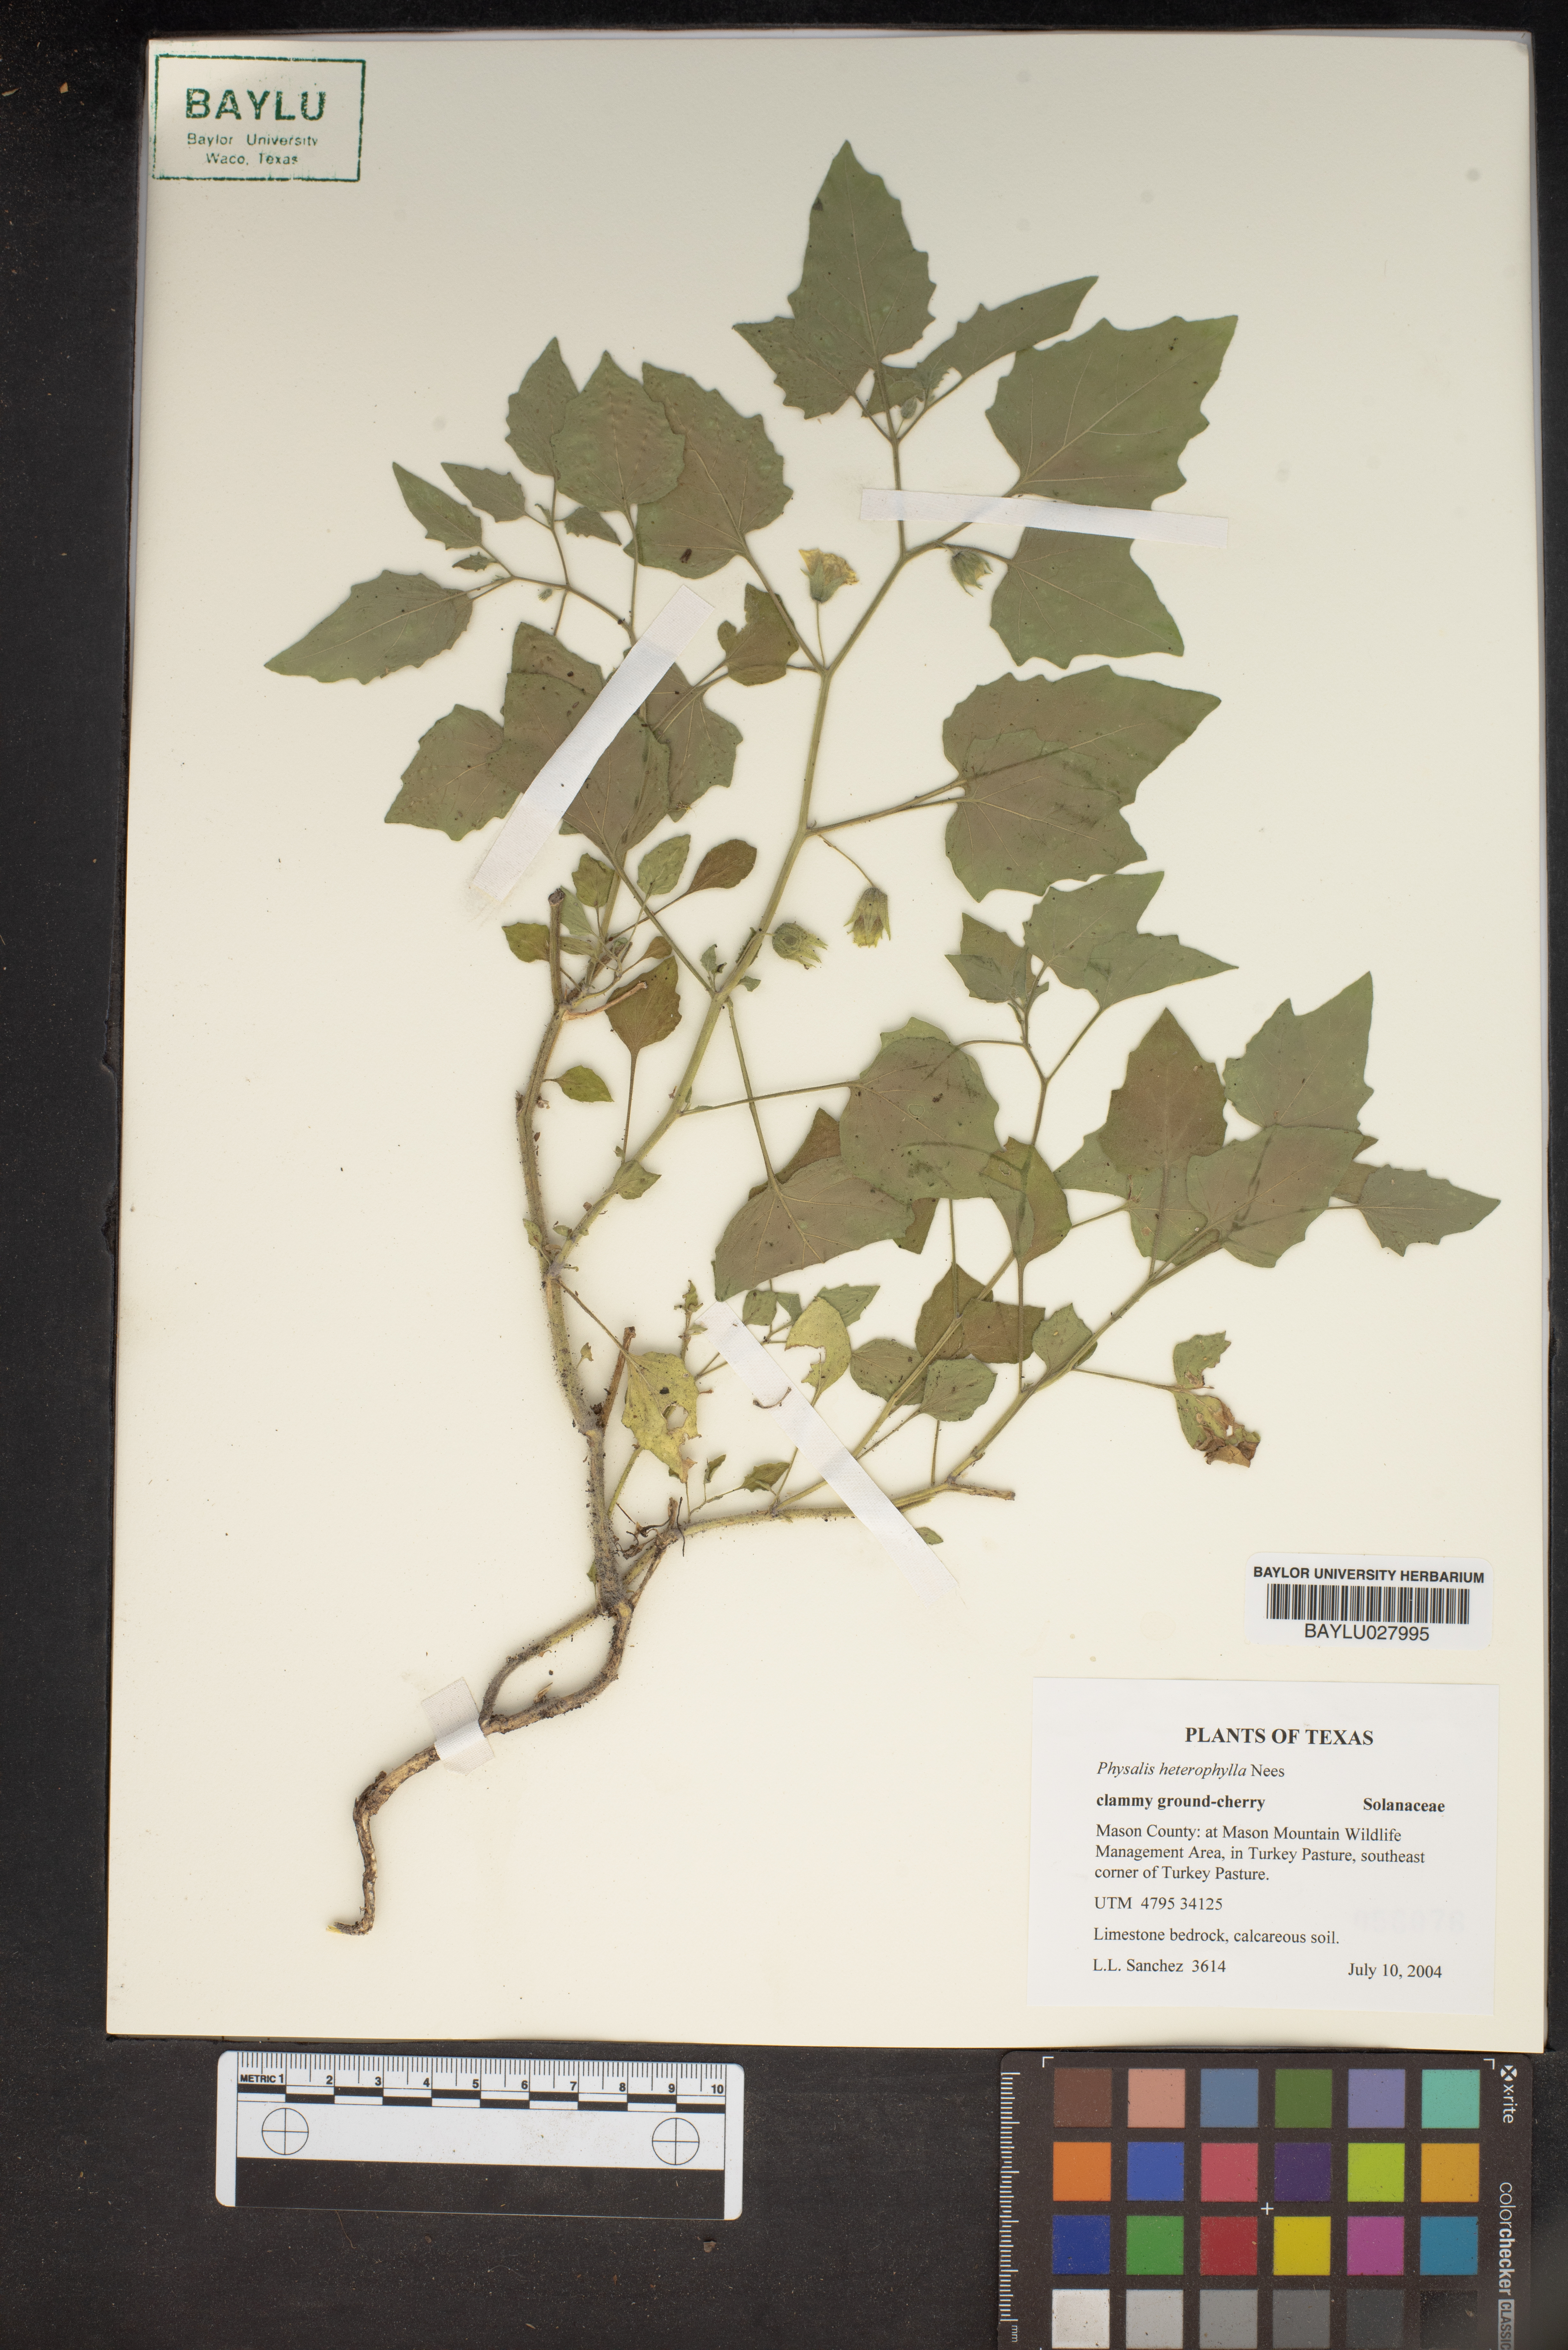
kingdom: Plantae
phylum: Tracheophyta
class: Magnoliopsida
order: Solanales
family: Solanaceae
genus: Physalis
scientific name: Physalis heterophylla
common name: Clammy ground-cherry
